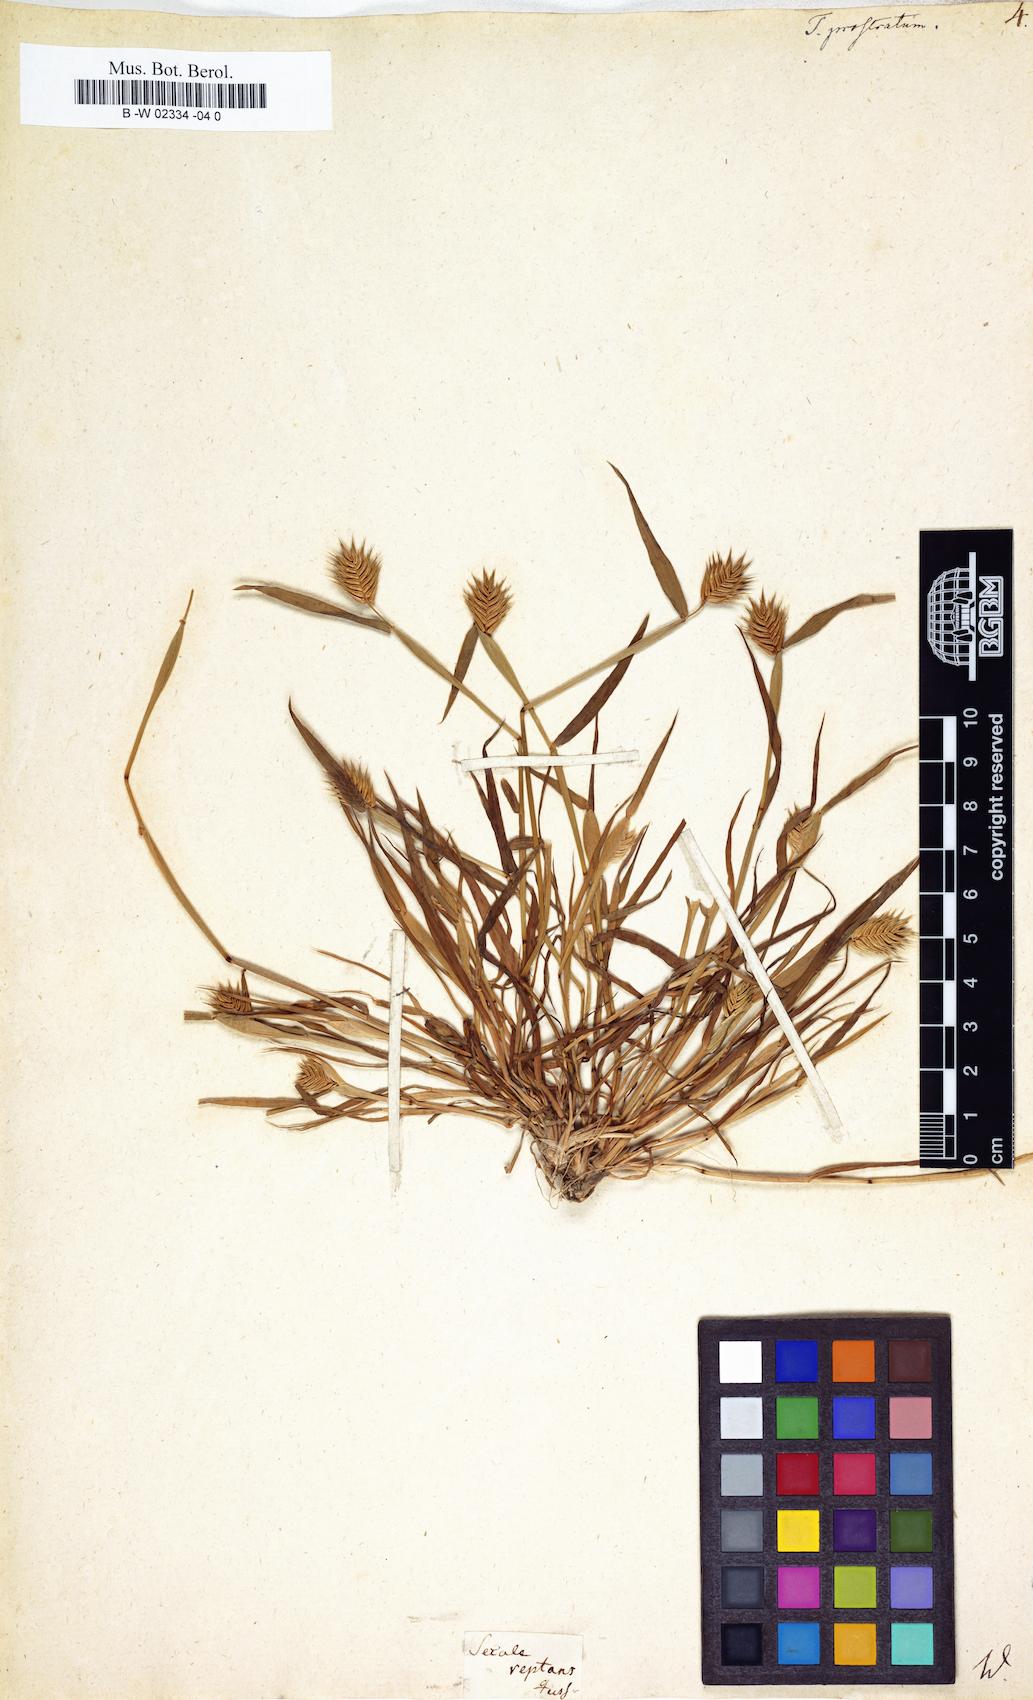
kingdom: Plantae
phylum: Tracheophyta
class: Liliopsida
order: Poales
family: Poaceae
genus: Eremopyrum
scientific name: Eremopyrum
